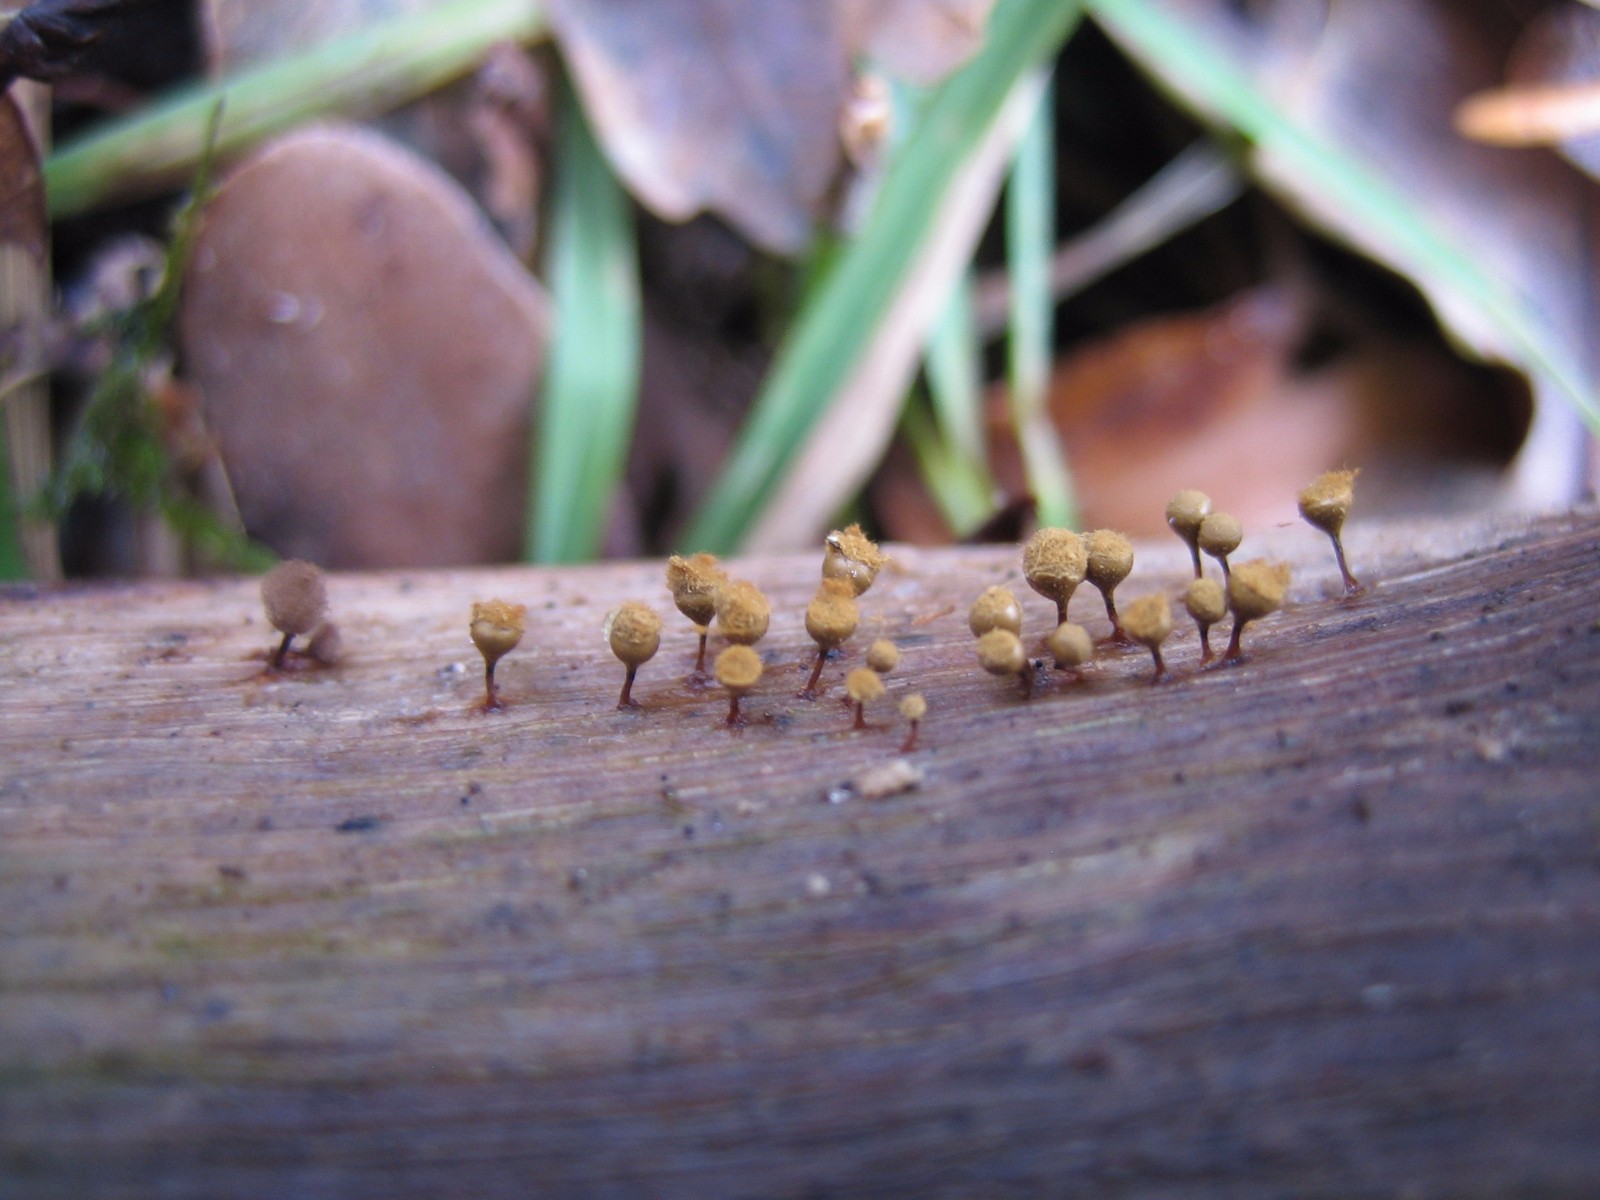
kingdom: Protozoa
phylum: Mycetozoa
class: Myxomycetes
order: Trichiales
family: Trichiaceae
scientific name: Trichiaceae
